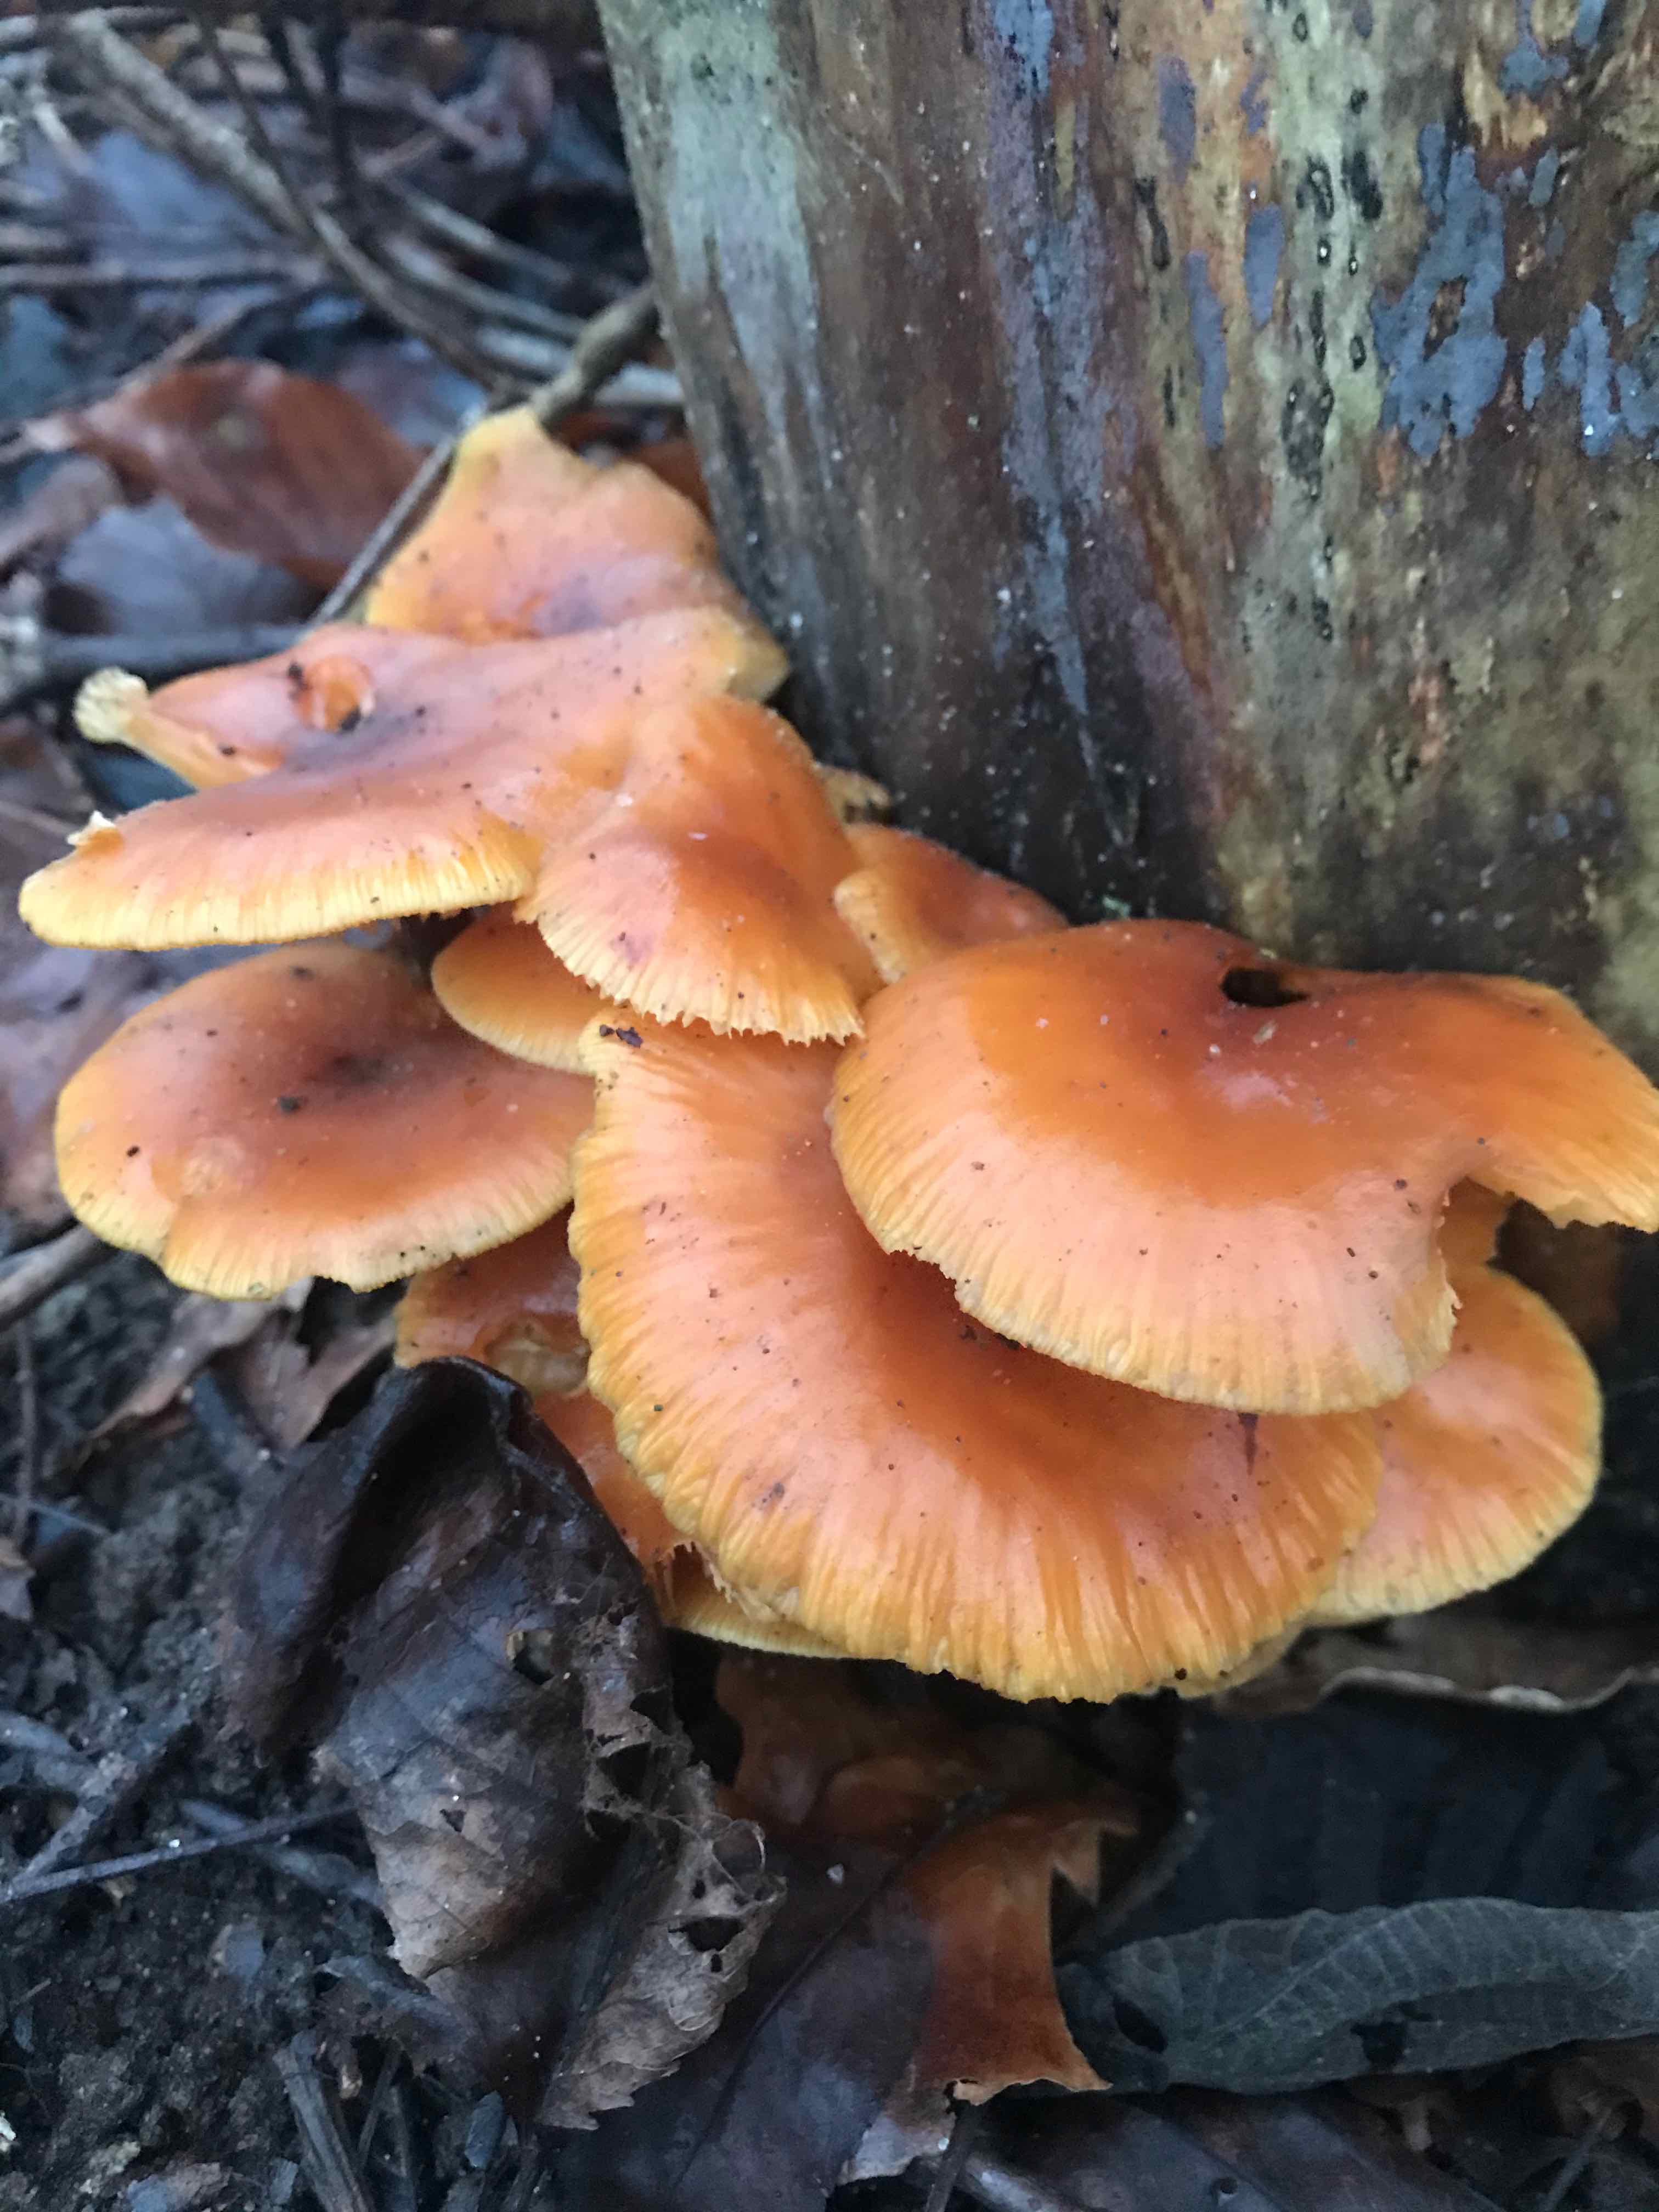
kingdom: Fungi
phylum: Basidiomycota
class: Agaricomycetes
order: Agaricales
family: Physalacriaceae
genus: Flammulina
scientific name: Flammulina
